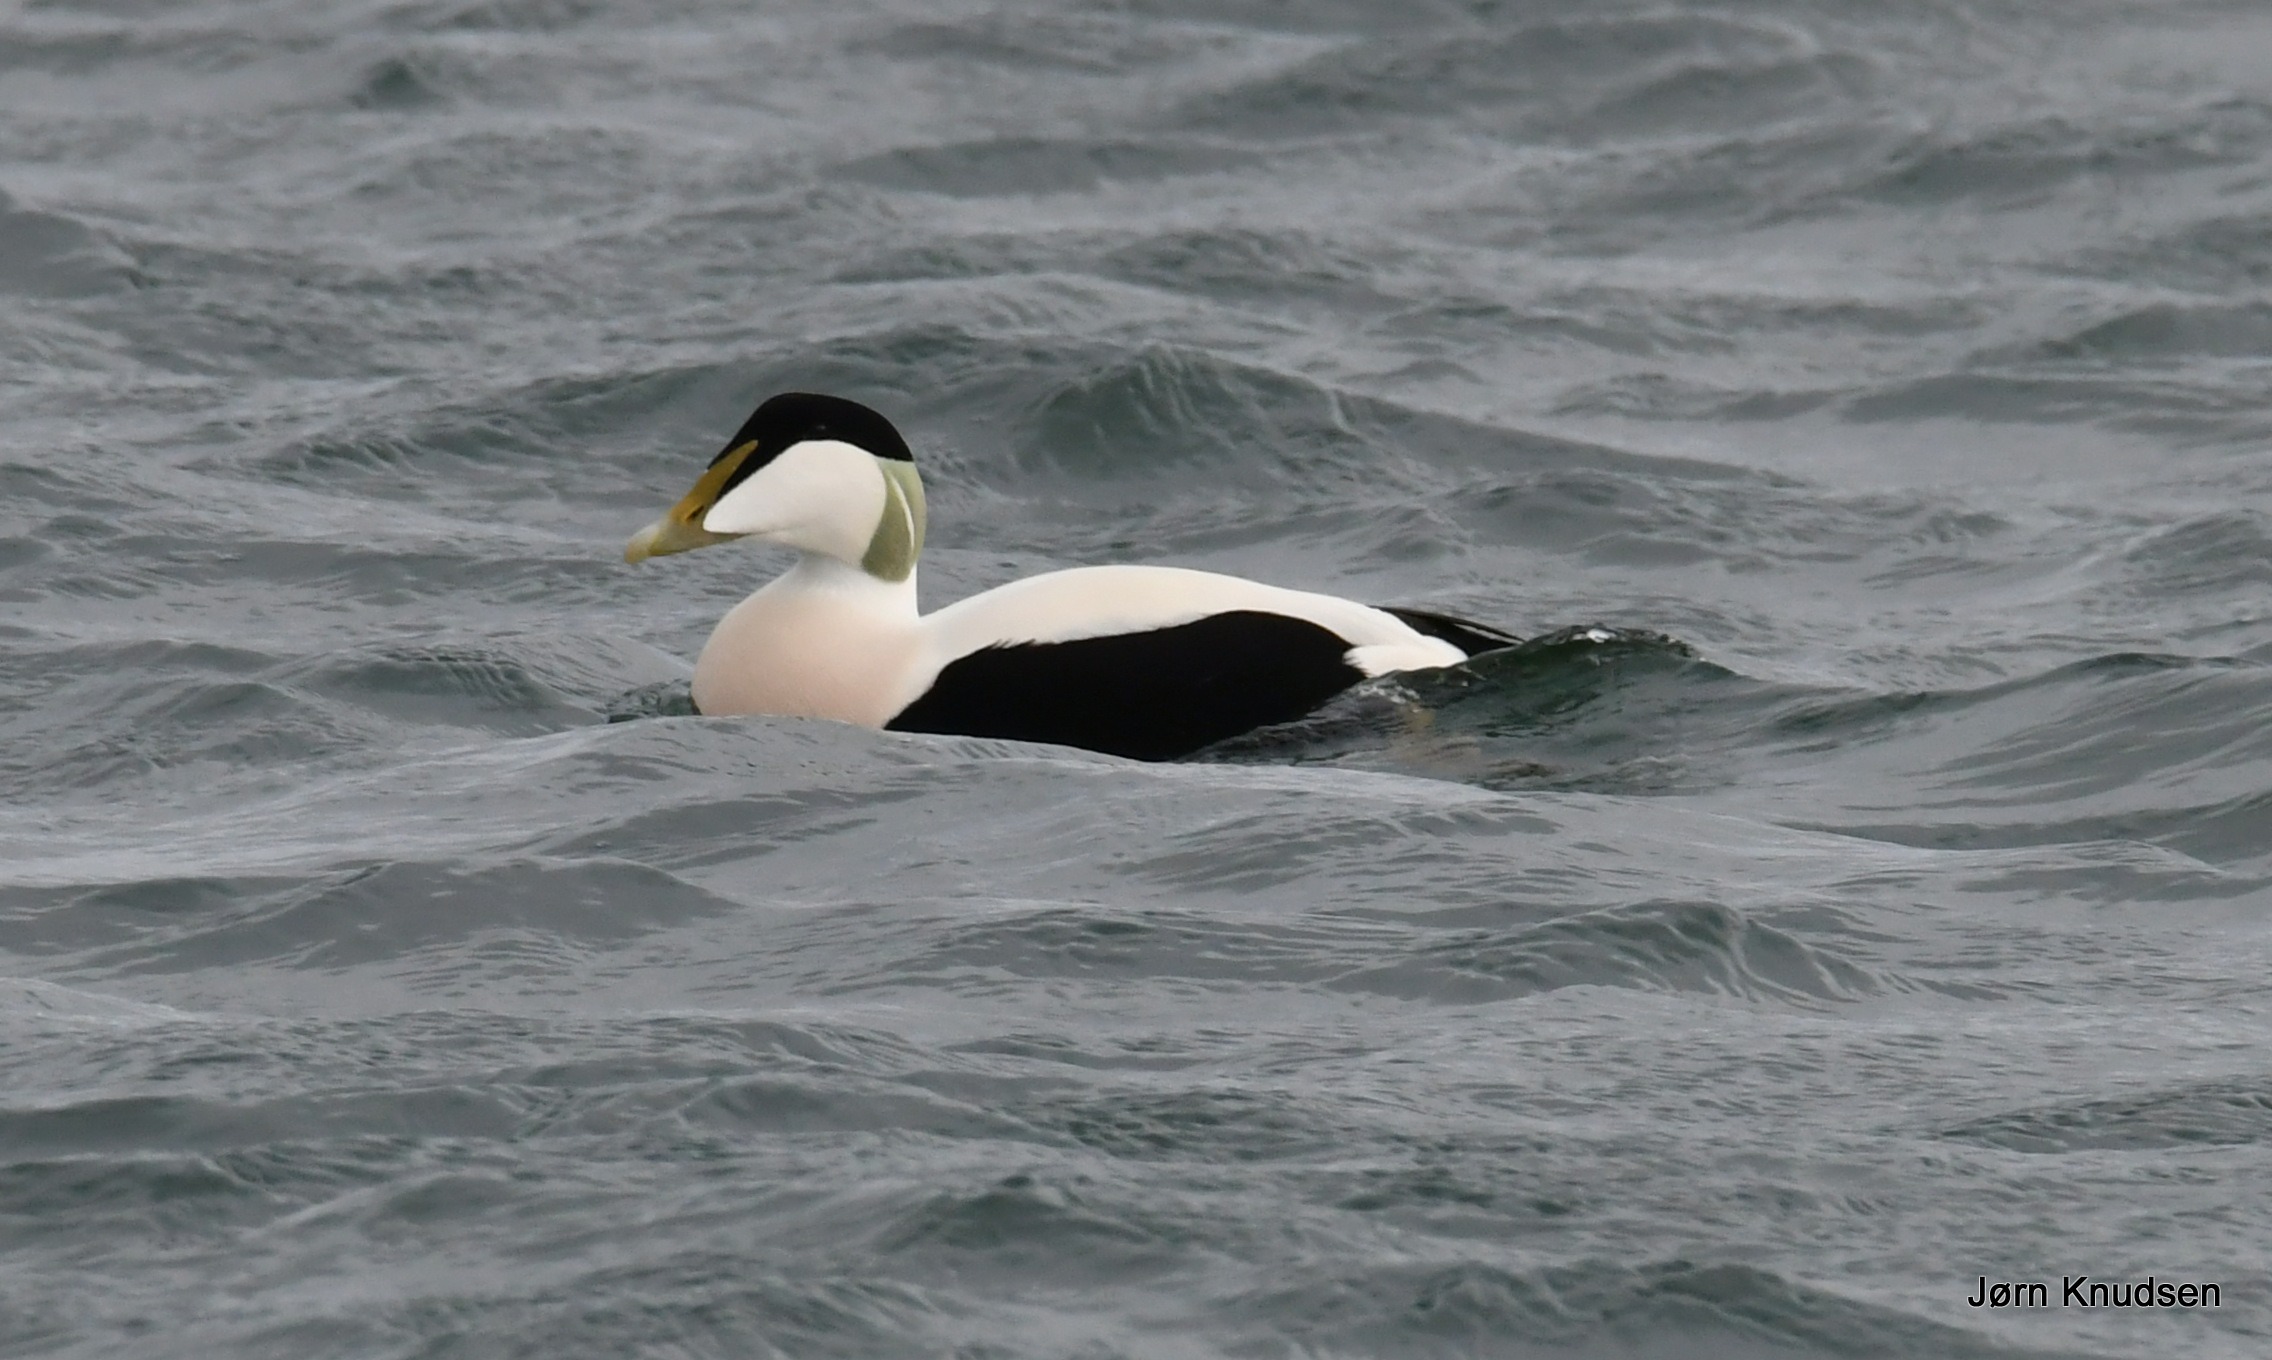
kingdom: Animalia
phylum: Chordata
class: Aves
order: Anseriformes
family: Anatidae
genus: Somateria
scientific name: Somateria mollissima
